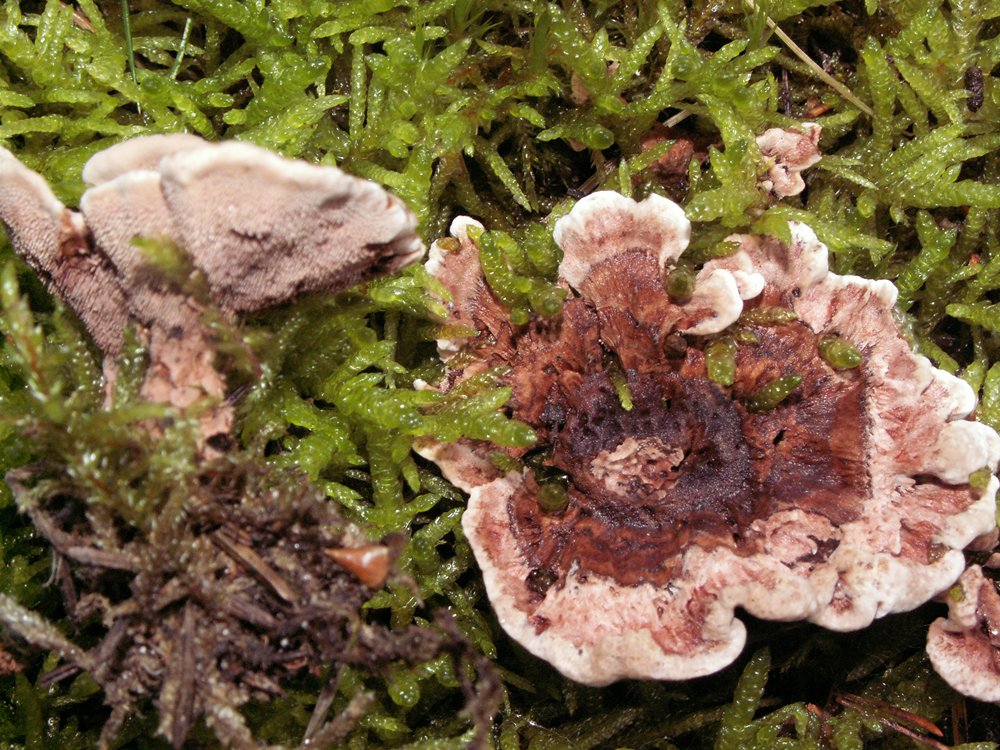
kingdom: Fungi
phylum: Basidiomycota
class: Agaricomycetes
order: Thelephorales
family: Bankeraceae
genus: Hydnellum
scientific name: Hydnellum concrescens
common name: bæltet korkpigsvamp
